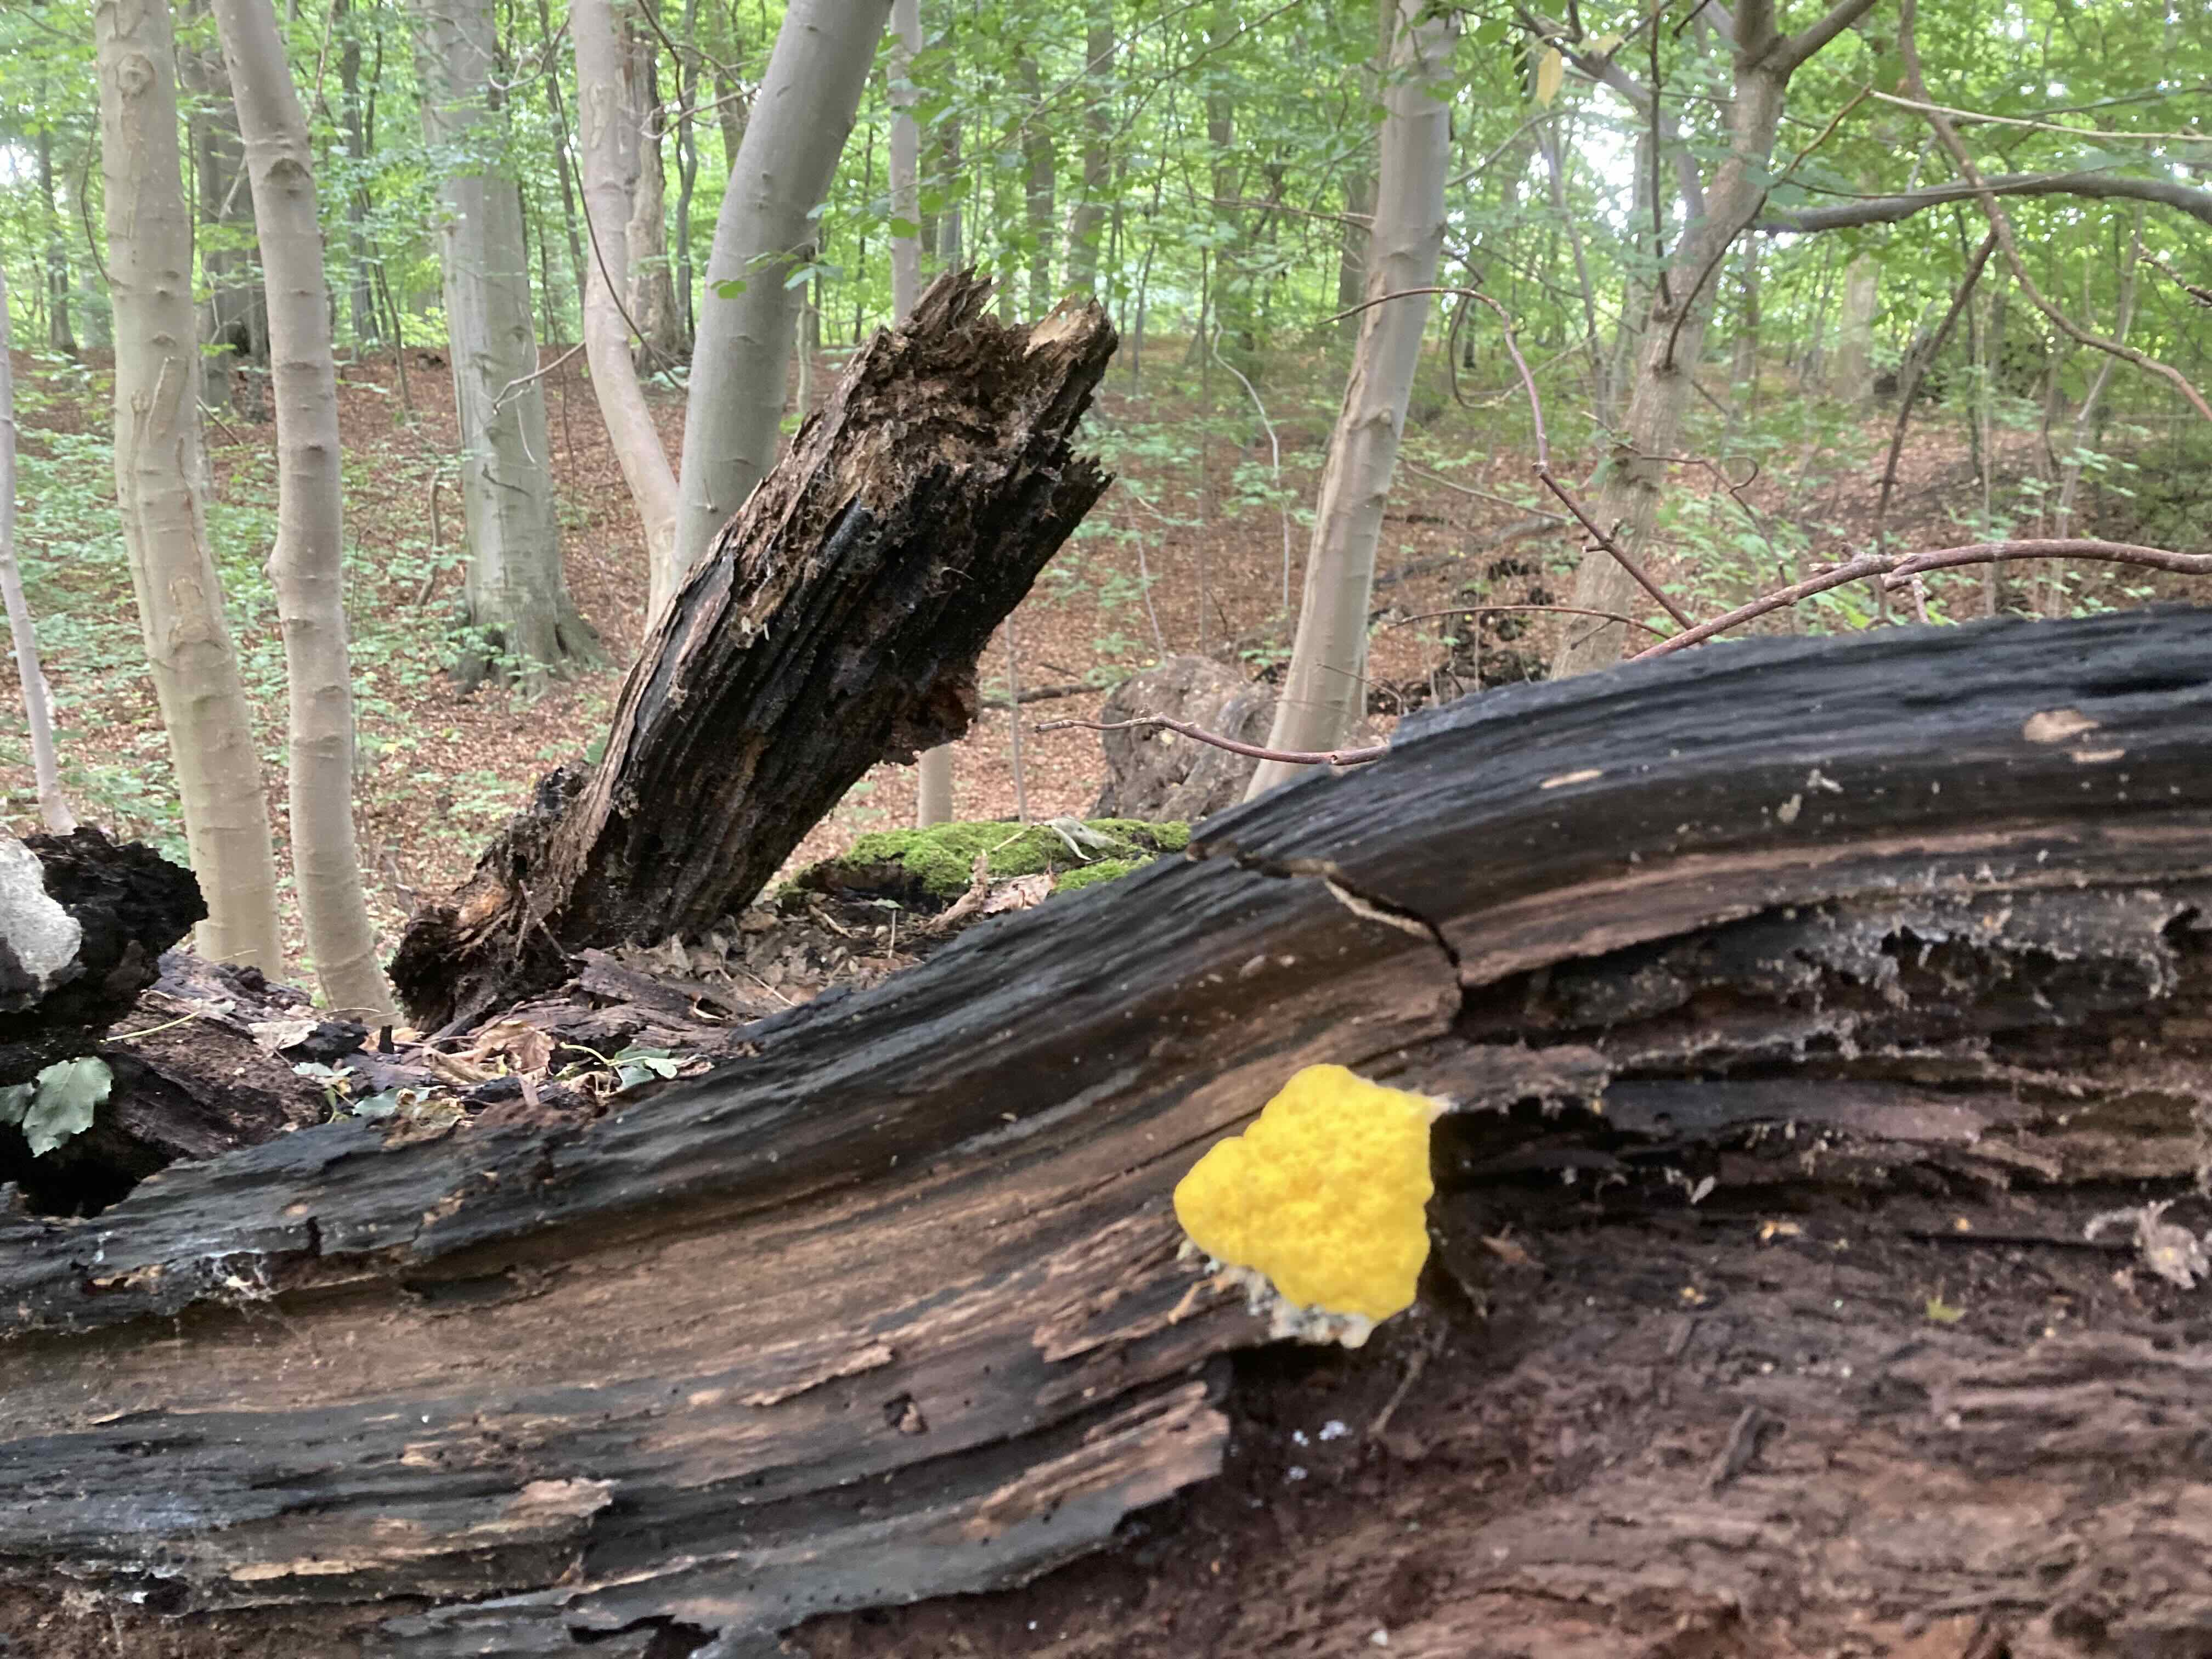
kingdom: Protozoa
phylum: Mycetozoa
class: Myxomycetes
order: Physarales
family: Physaraceae
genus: Fuligo
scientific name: Fuligo septica
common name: gul troldsmør
